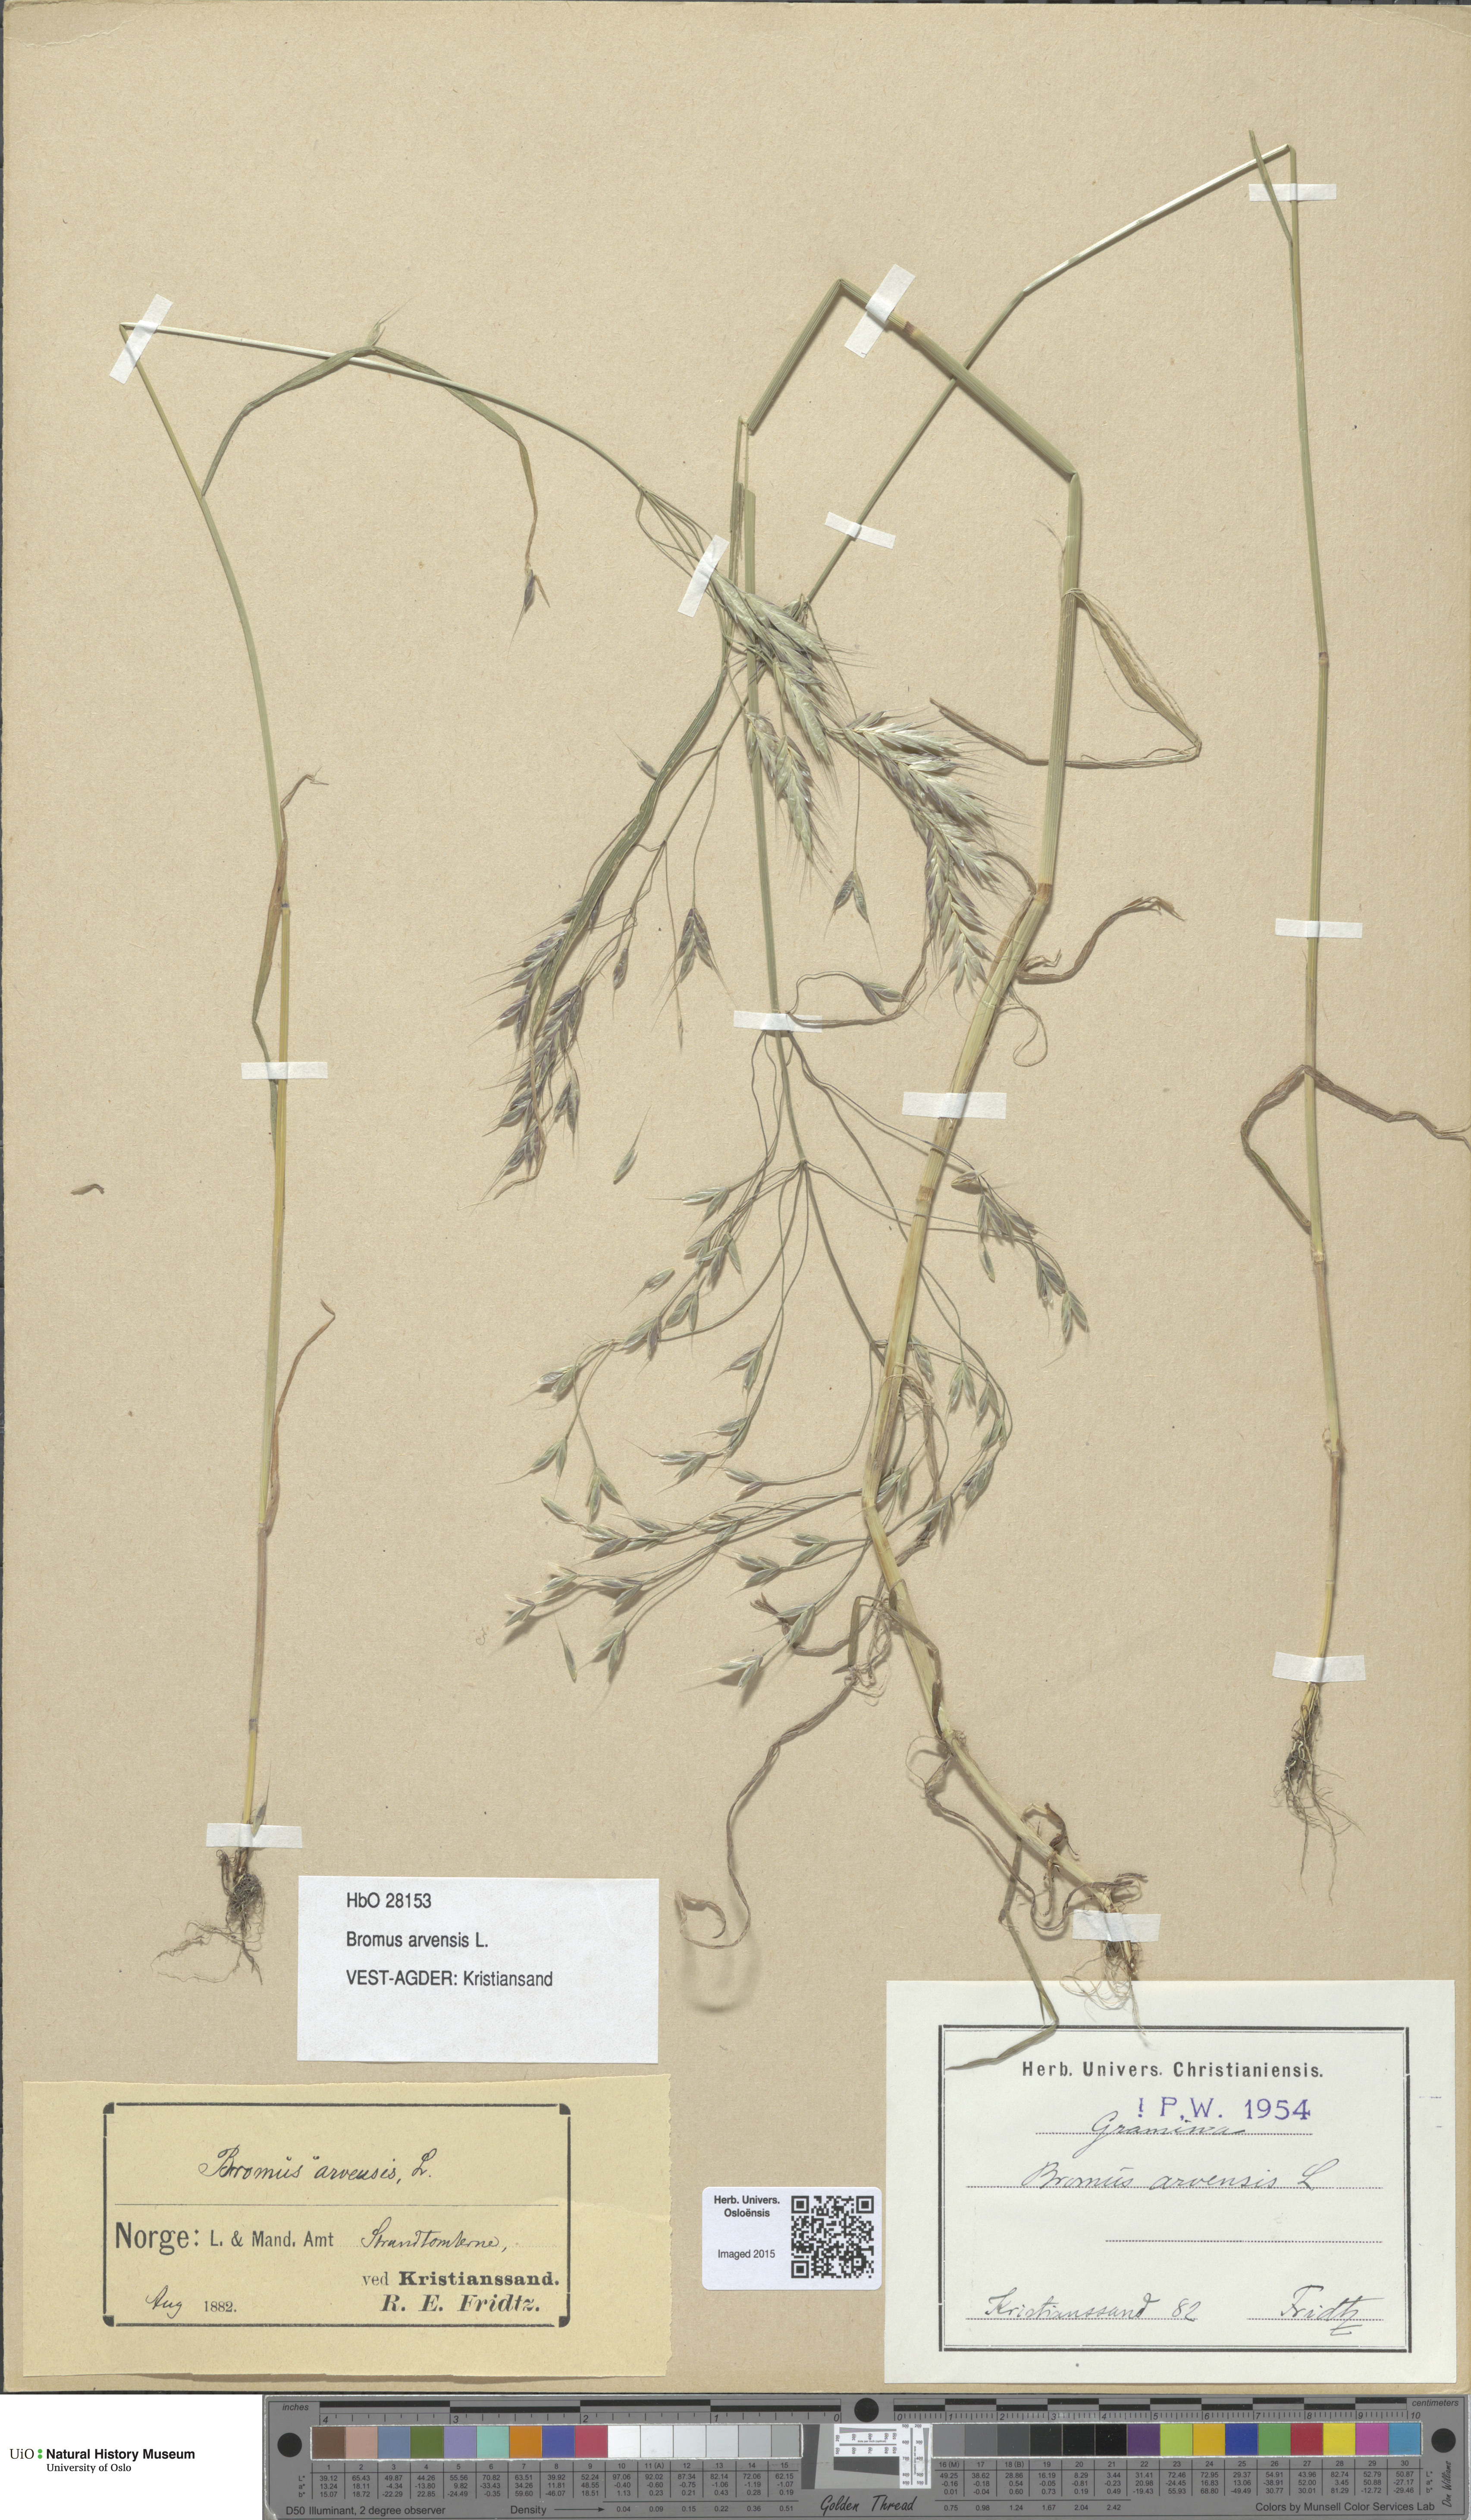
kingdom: Plantae
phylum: Tracheophyta
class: Liliopsida
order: Poales
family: Poaceae
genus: Bromus
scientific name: Bromus arvensis
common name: Field brome
